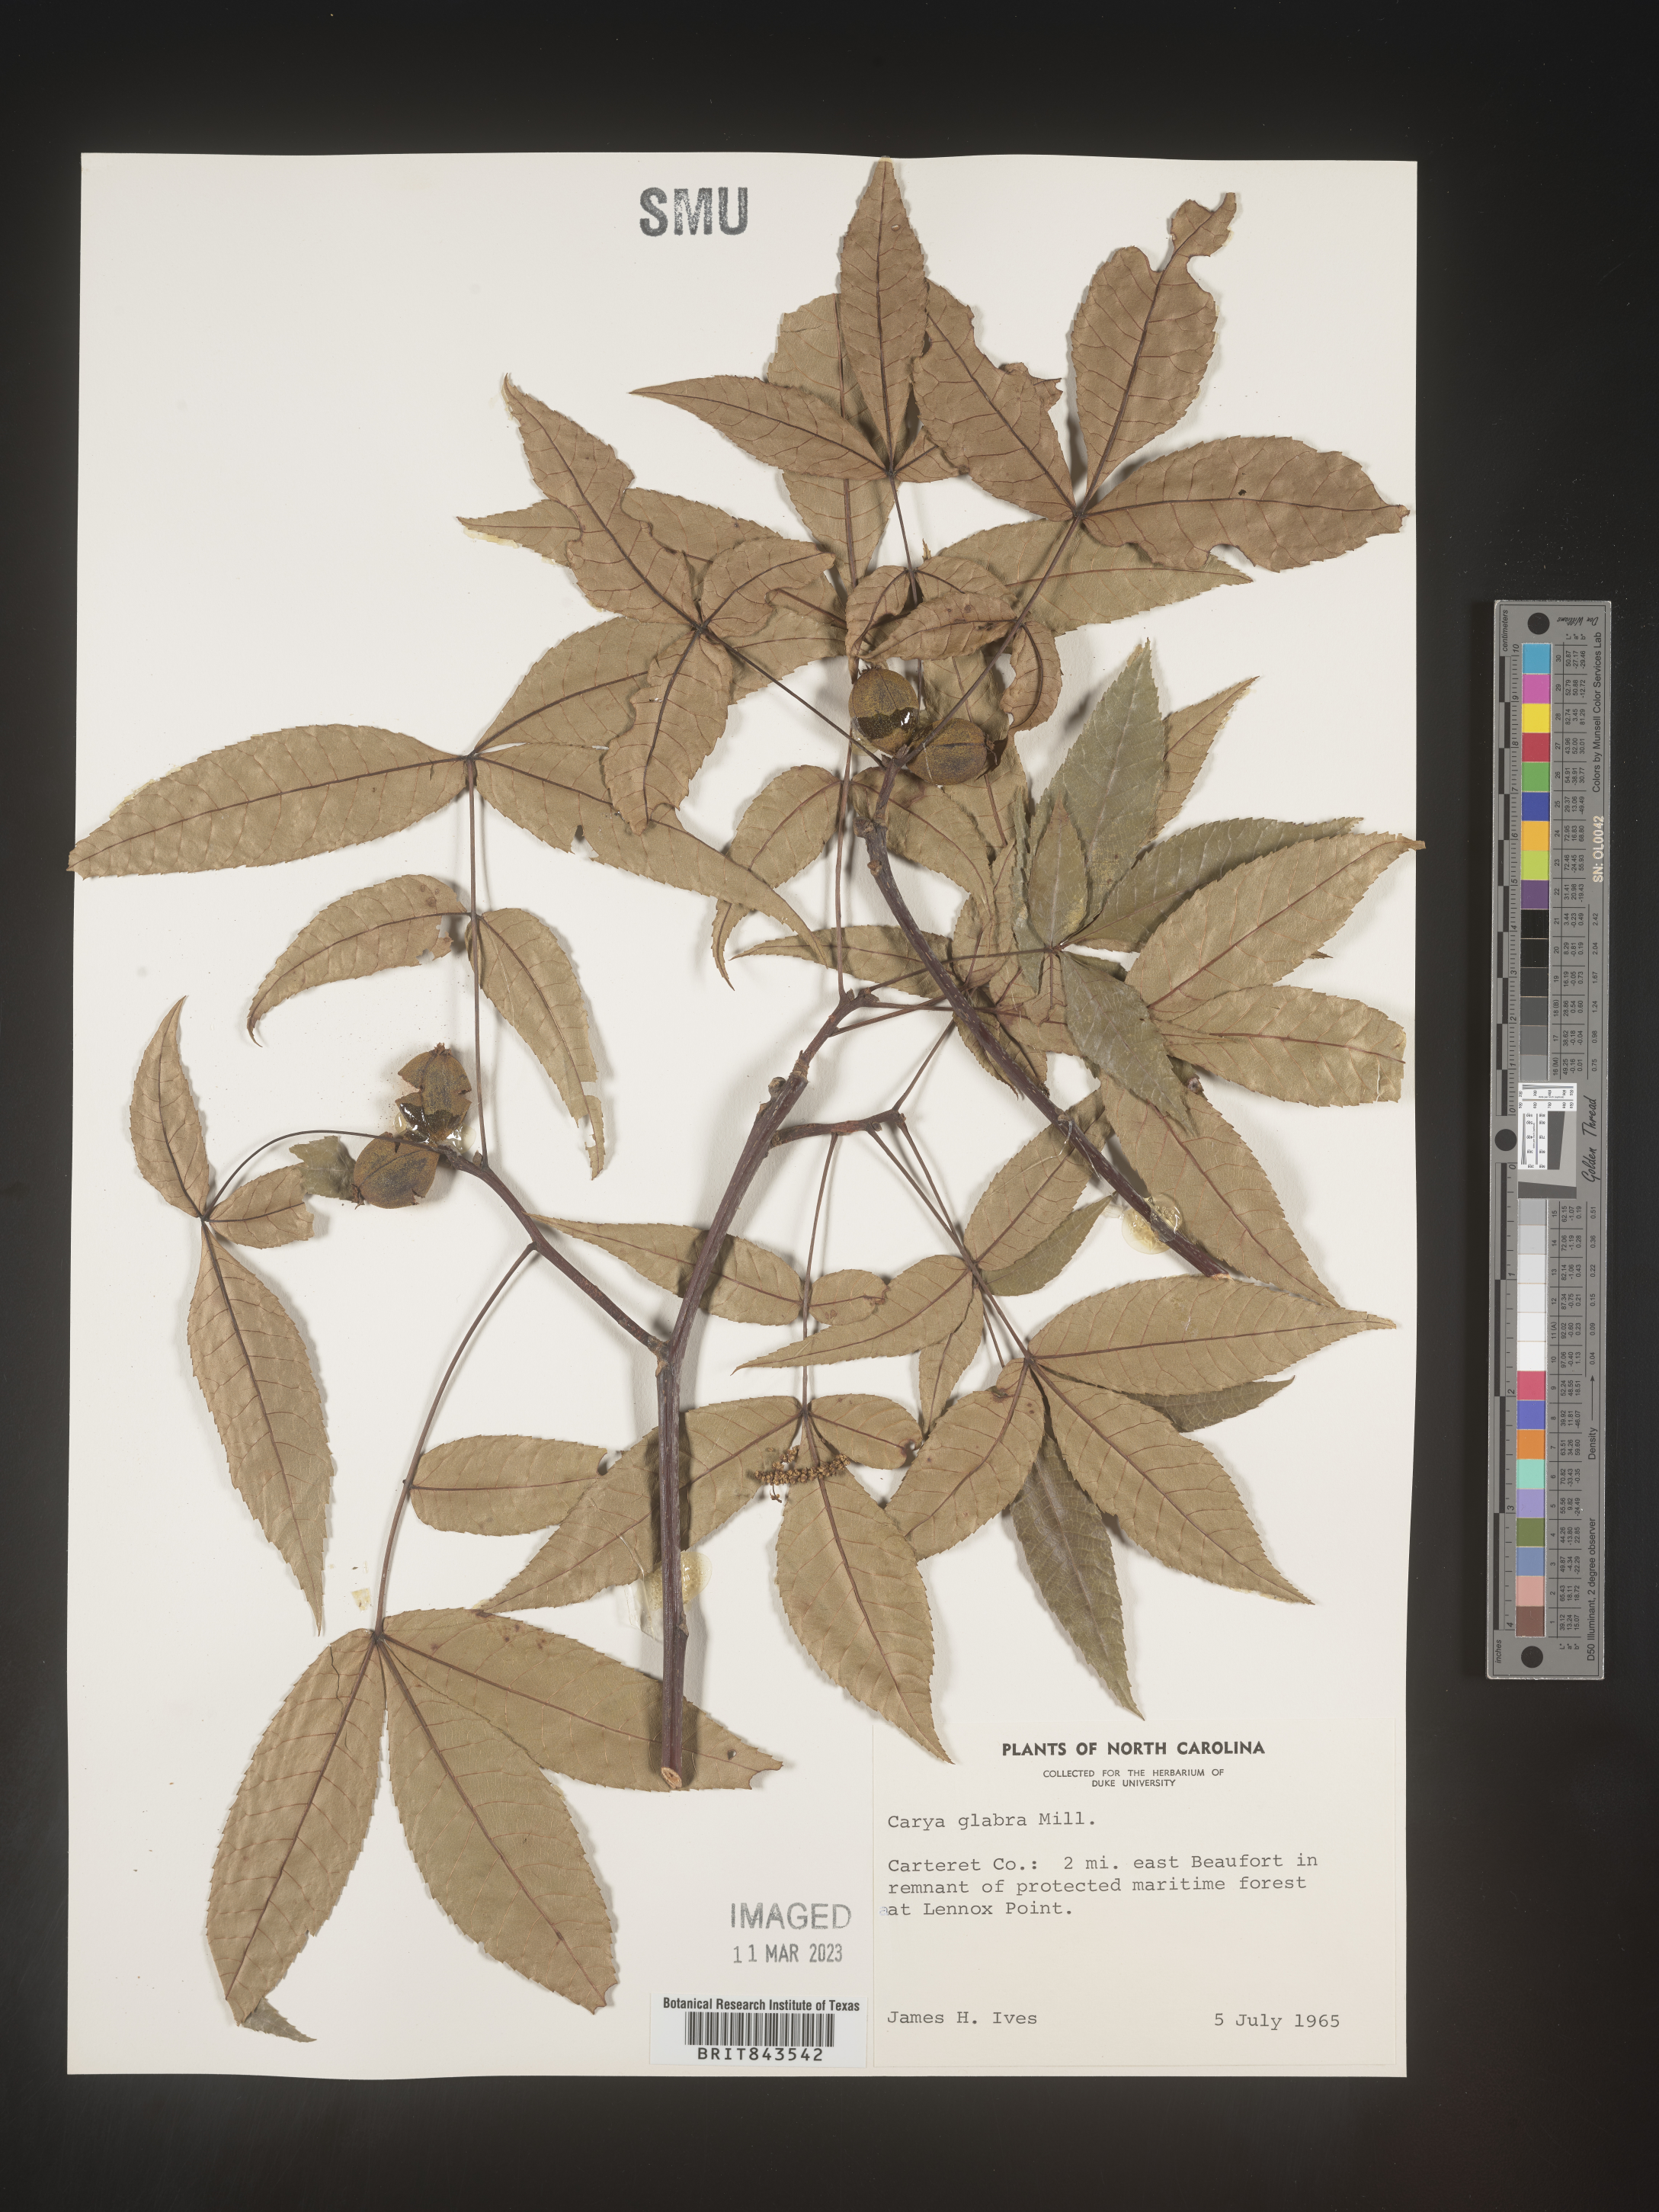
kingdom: Plantae
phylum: Tracheophyta
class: Magnoliopsida
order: Fagales
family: Juglandaceae
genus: Carya
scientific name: Carya glabra
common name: Pignut hickory
